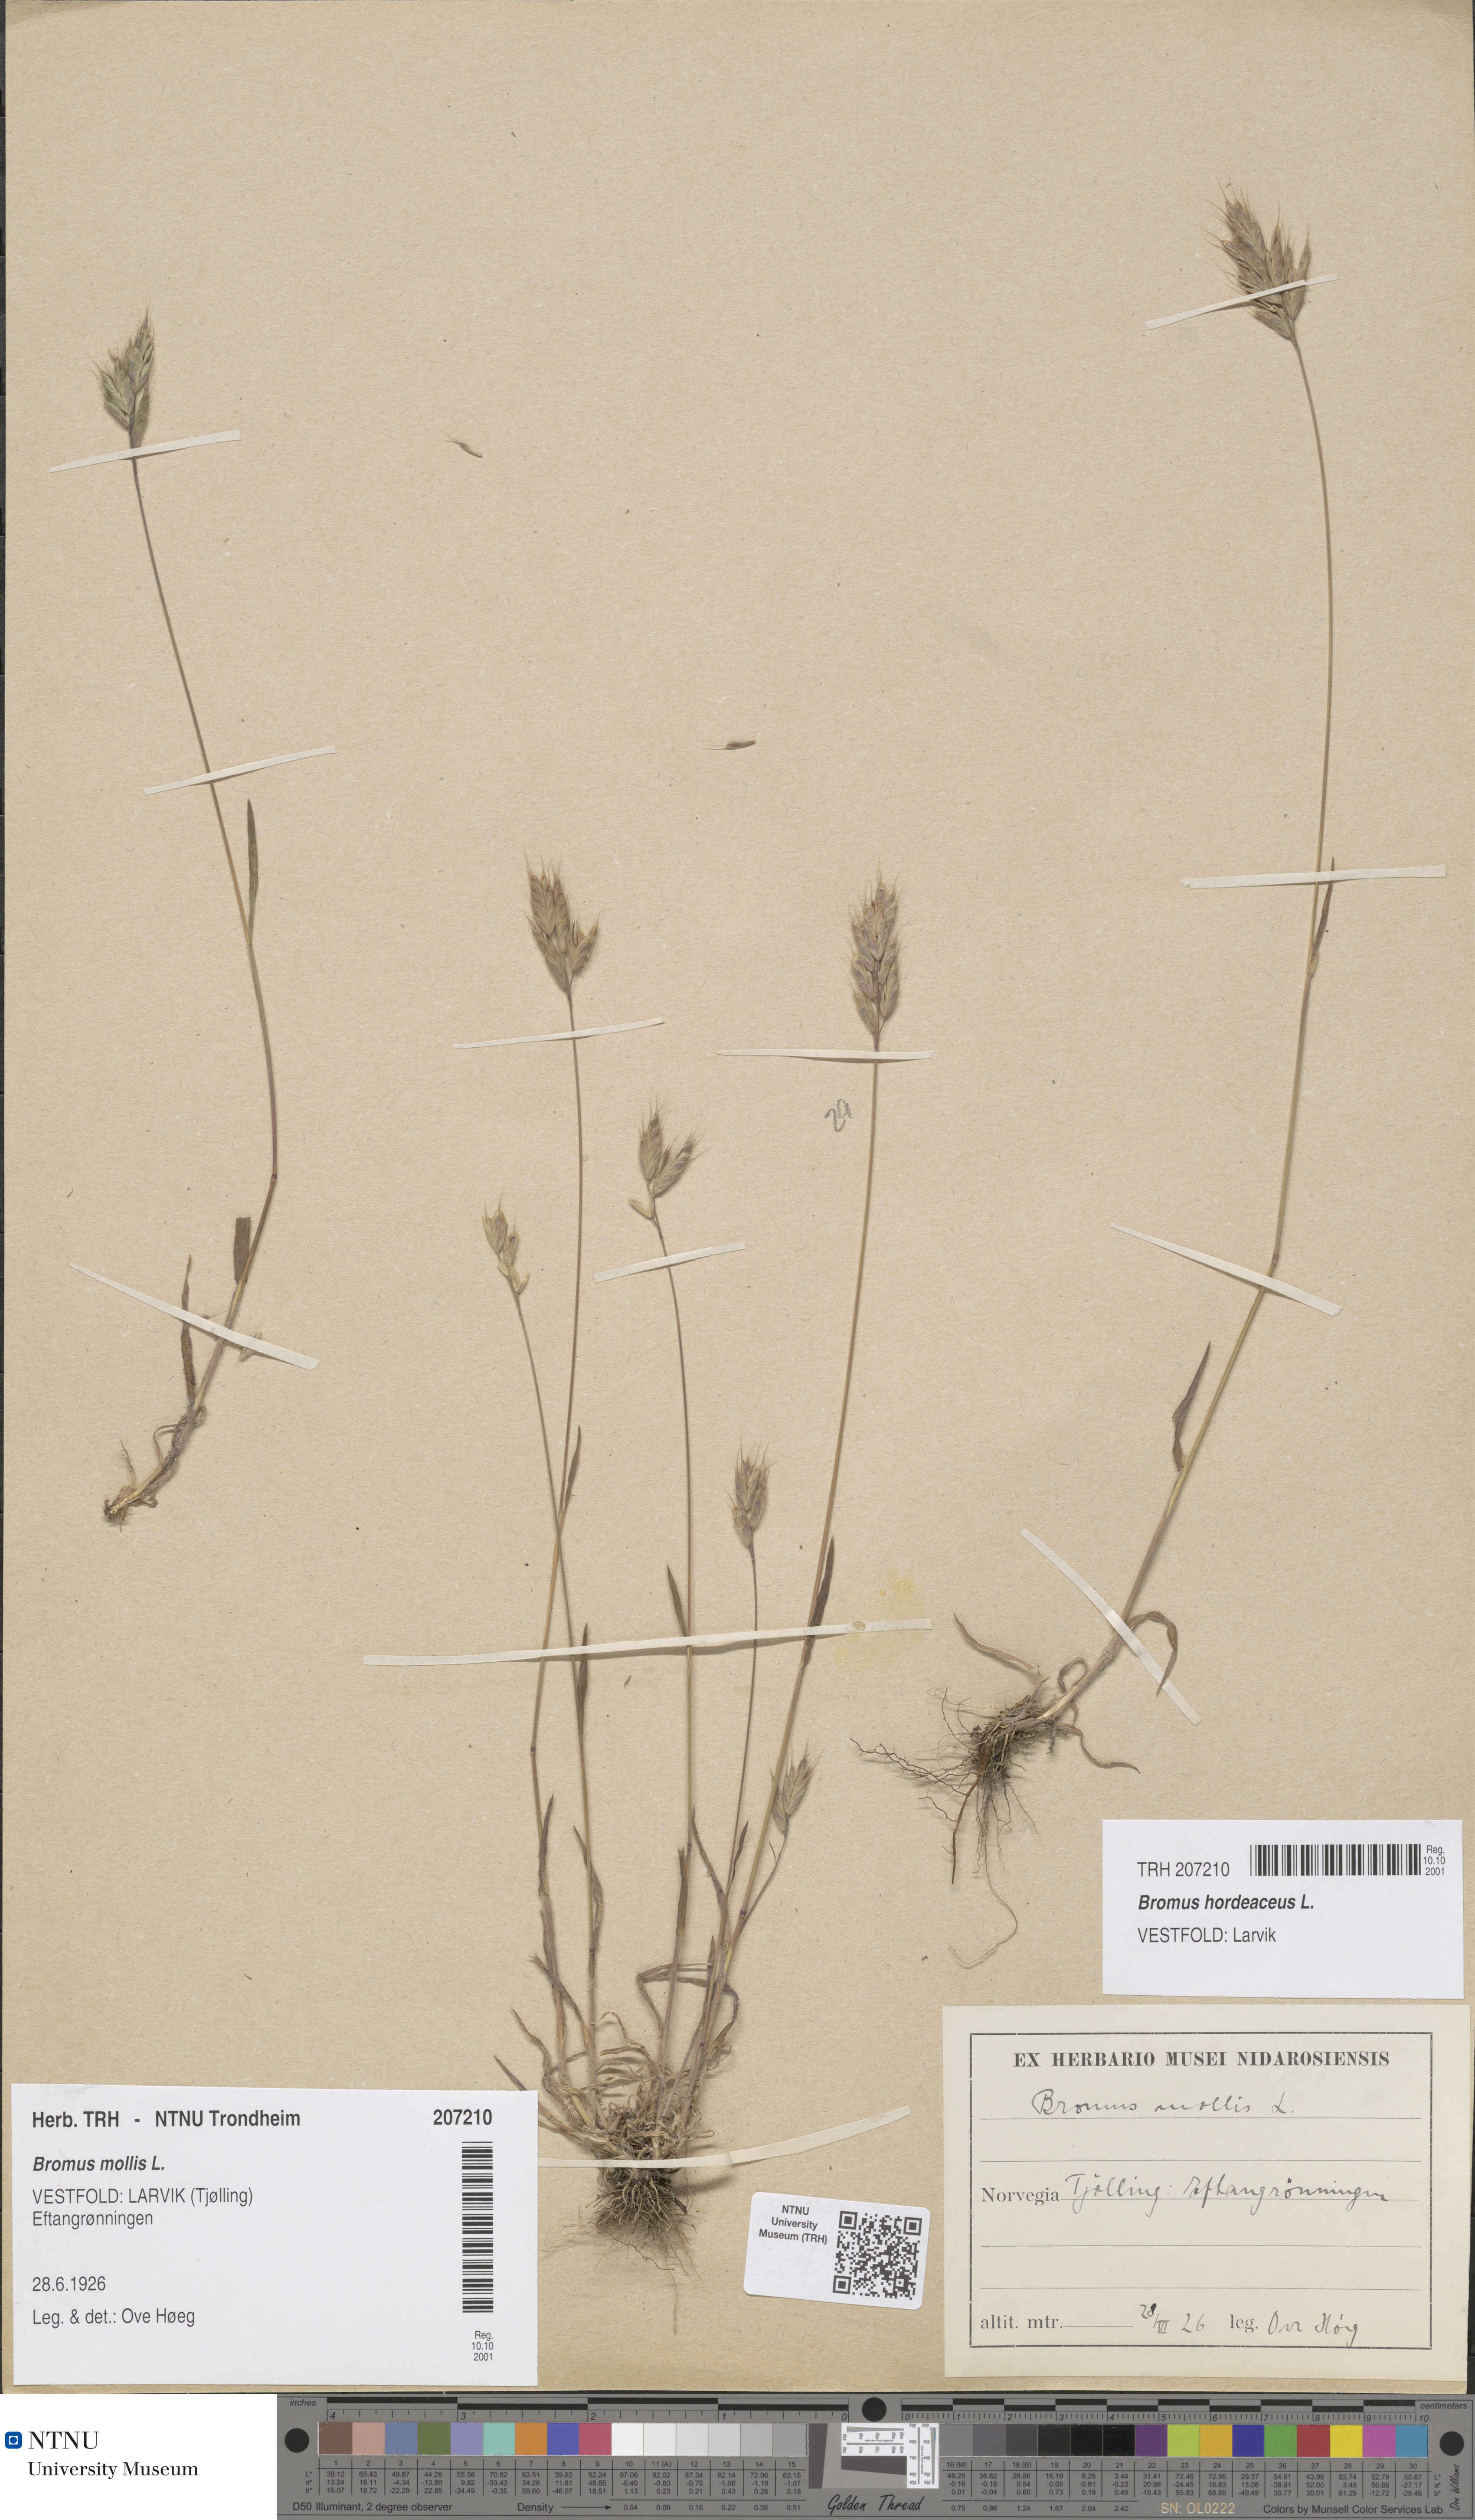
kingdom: Plantae
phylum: Tracheophyta
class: Liliopsida
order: Poales
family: Poaceae
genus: Bromus
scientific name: Bromus hordeaceus
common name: Soft brome
